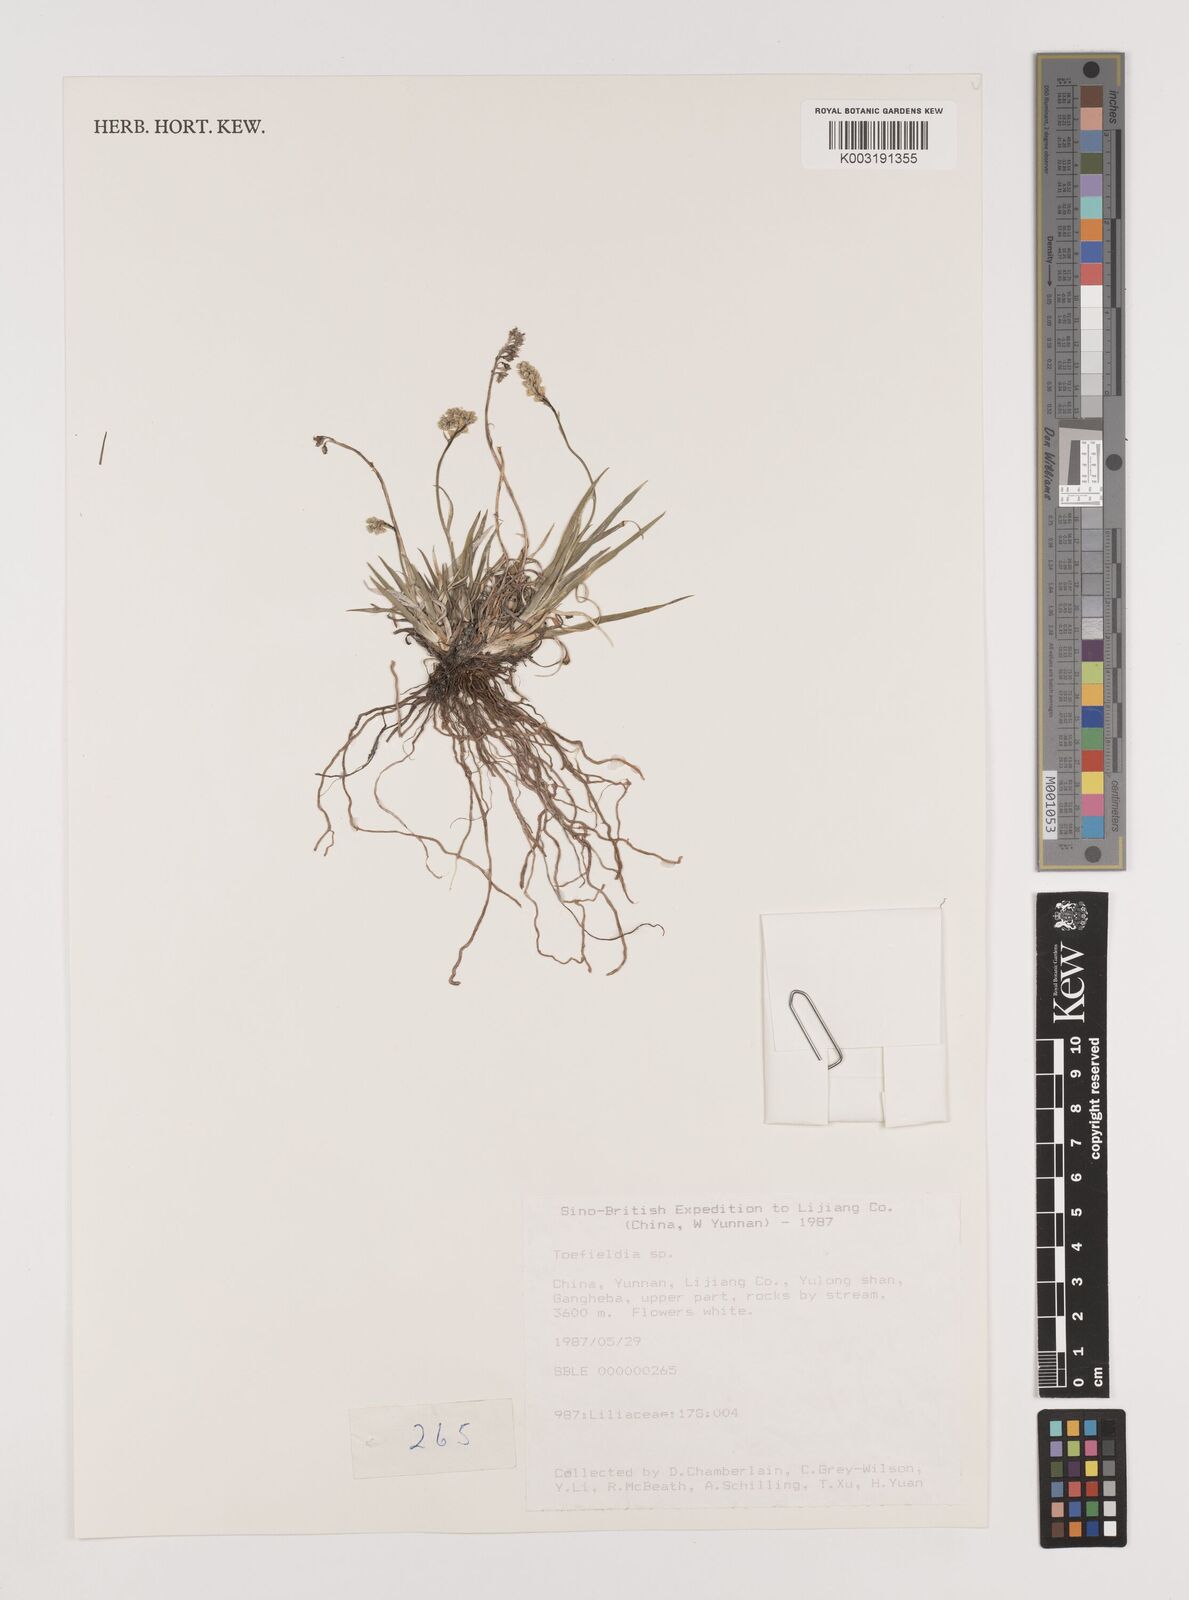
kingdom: Plantae
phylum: Tracheophyta
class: Liliopsida
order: Alismatales
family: Tofieldiaceae
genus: Tofieldia
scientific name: Tofieldia
